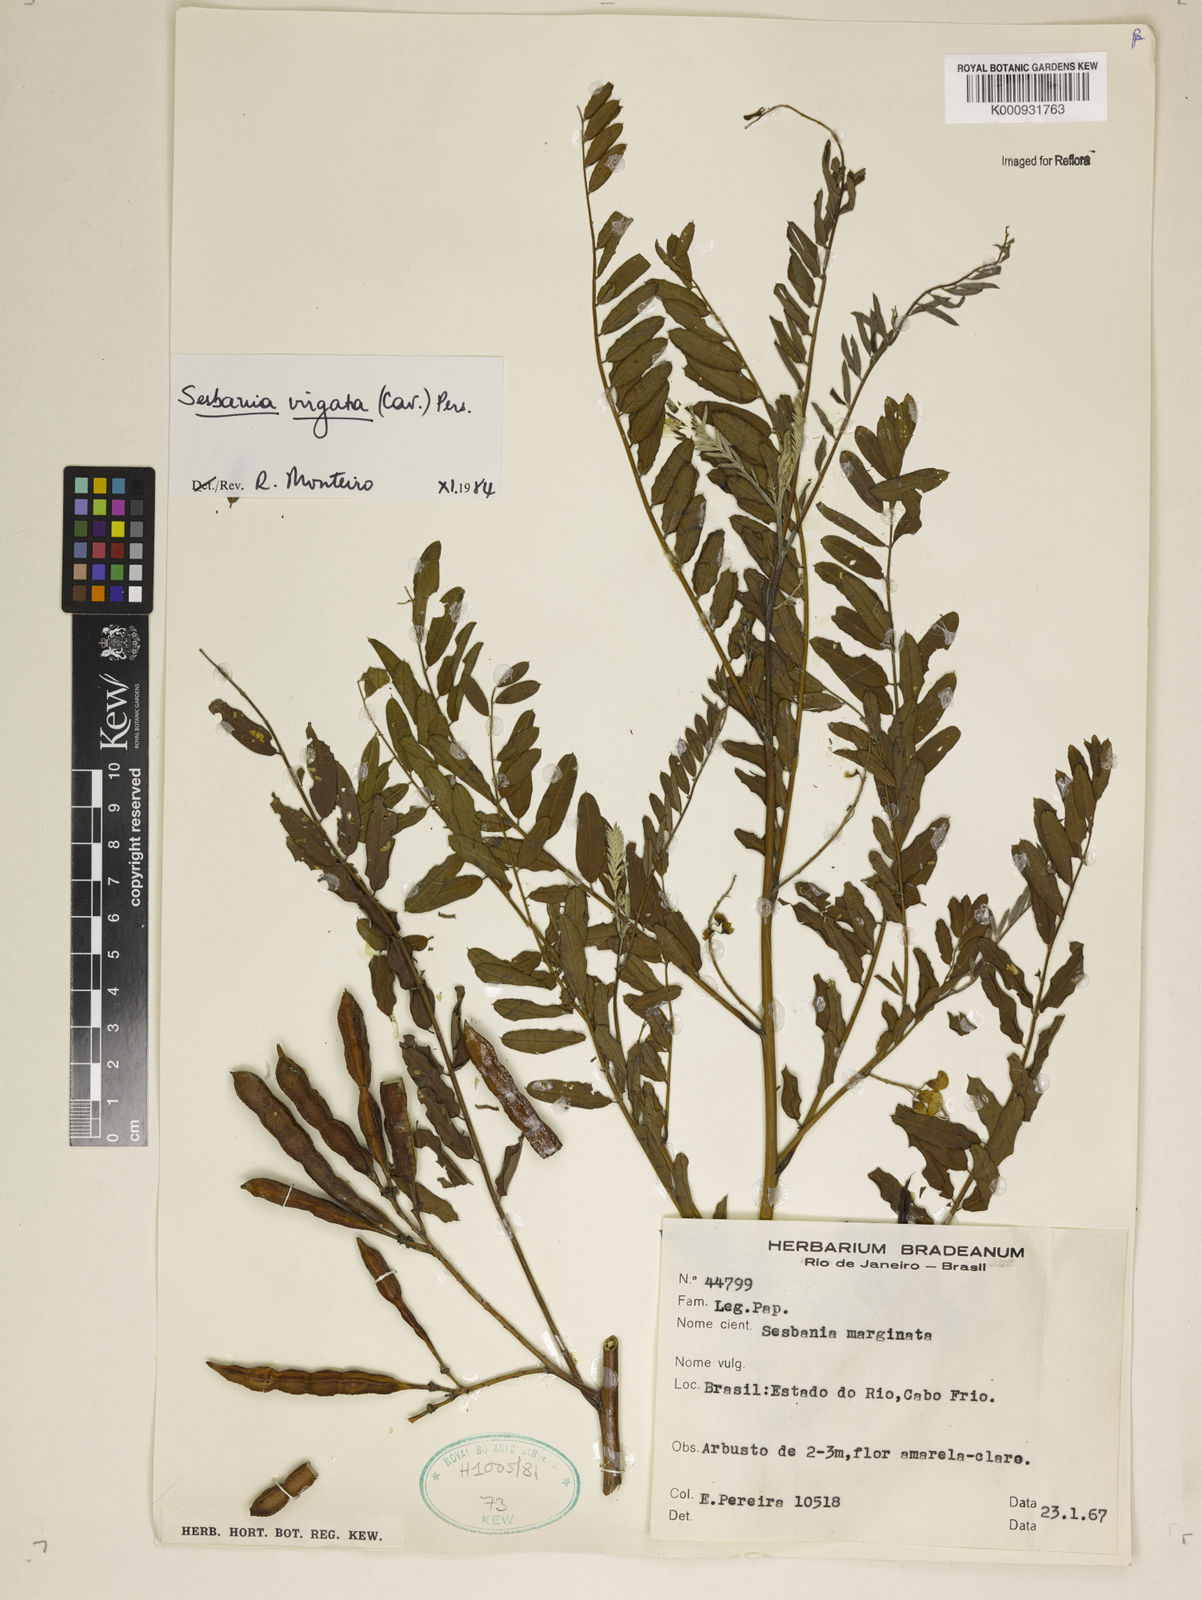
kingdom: Plantae
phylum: Tracheophyta
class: Magnoliopsida
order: Fabales
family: Fabaceae
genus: Sesbania
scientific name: Sesbania
